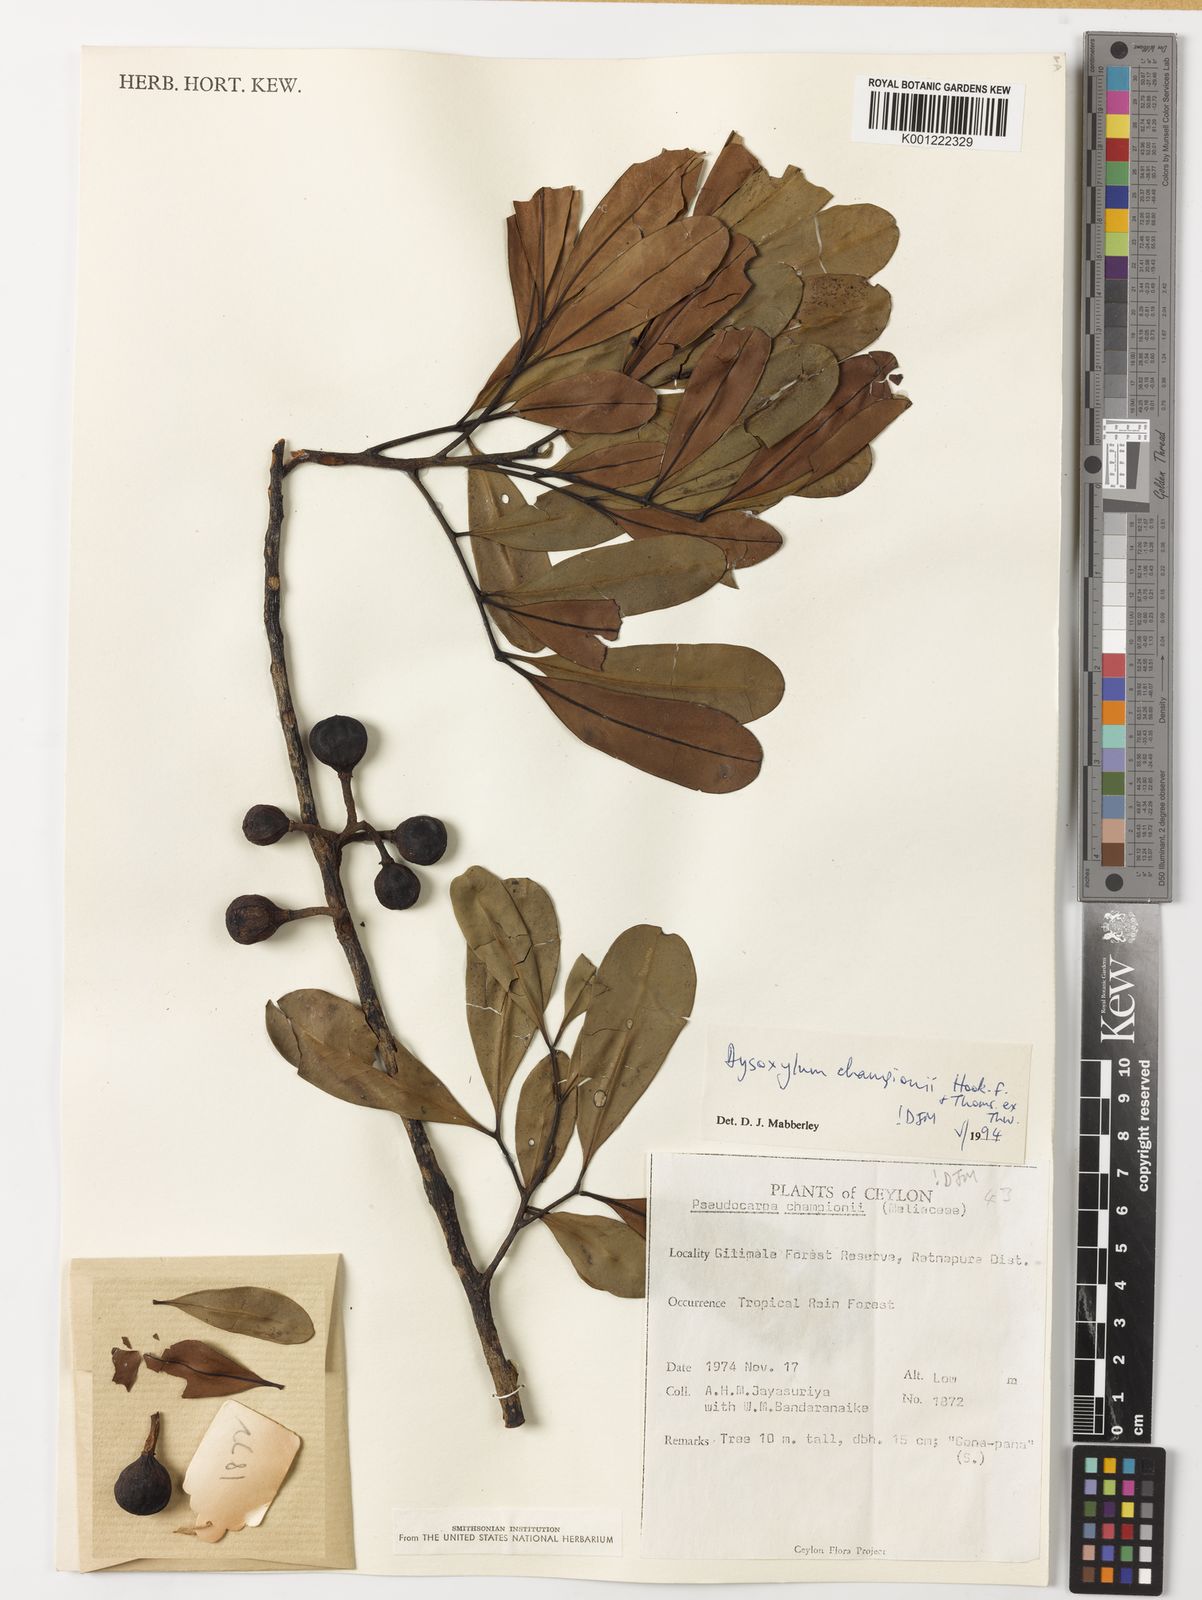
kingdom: Plantae
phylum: Tracheophyta
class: Magnoliopsida
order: Sapindales
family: Meliaceae
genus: Pseudocarapa
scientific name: Pseudocarapa championii
